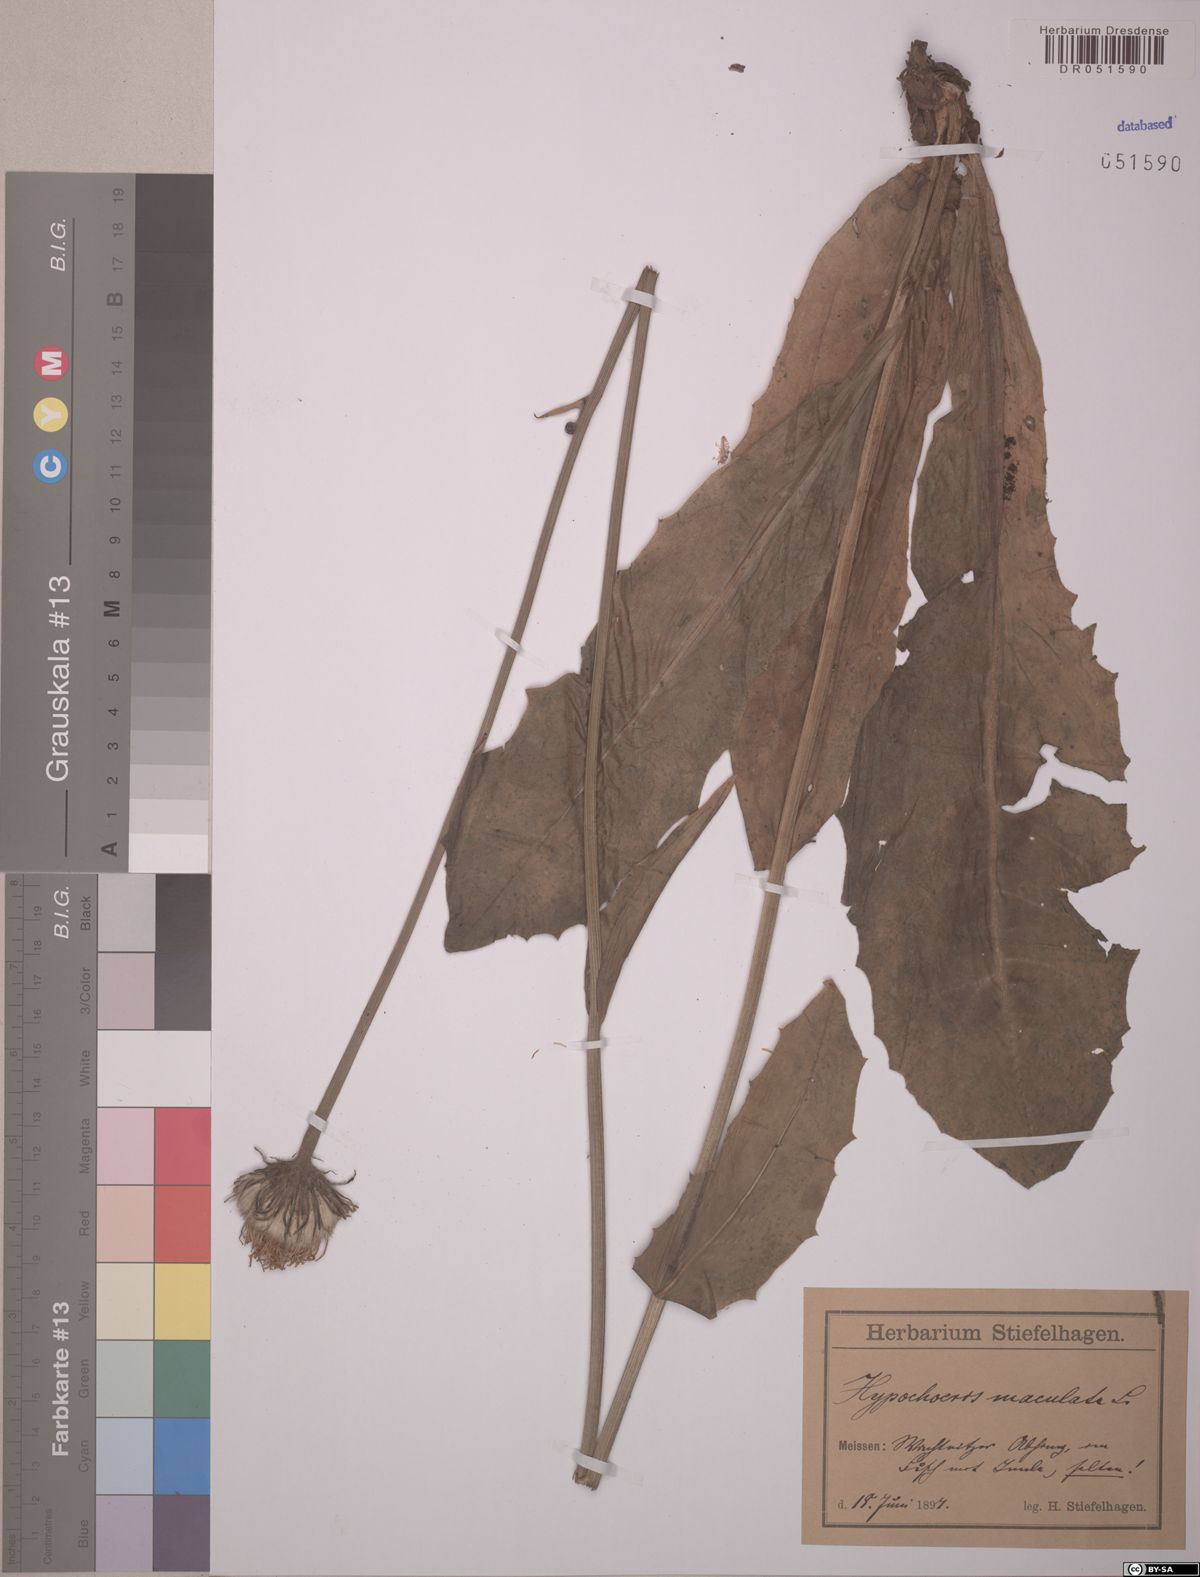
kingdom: Plantae
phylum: Tracheophyta
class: Magnoliopsida
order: Asterales
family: Asteraceae
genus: Trommsdorffia
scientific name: Trommsdorffia maculata
